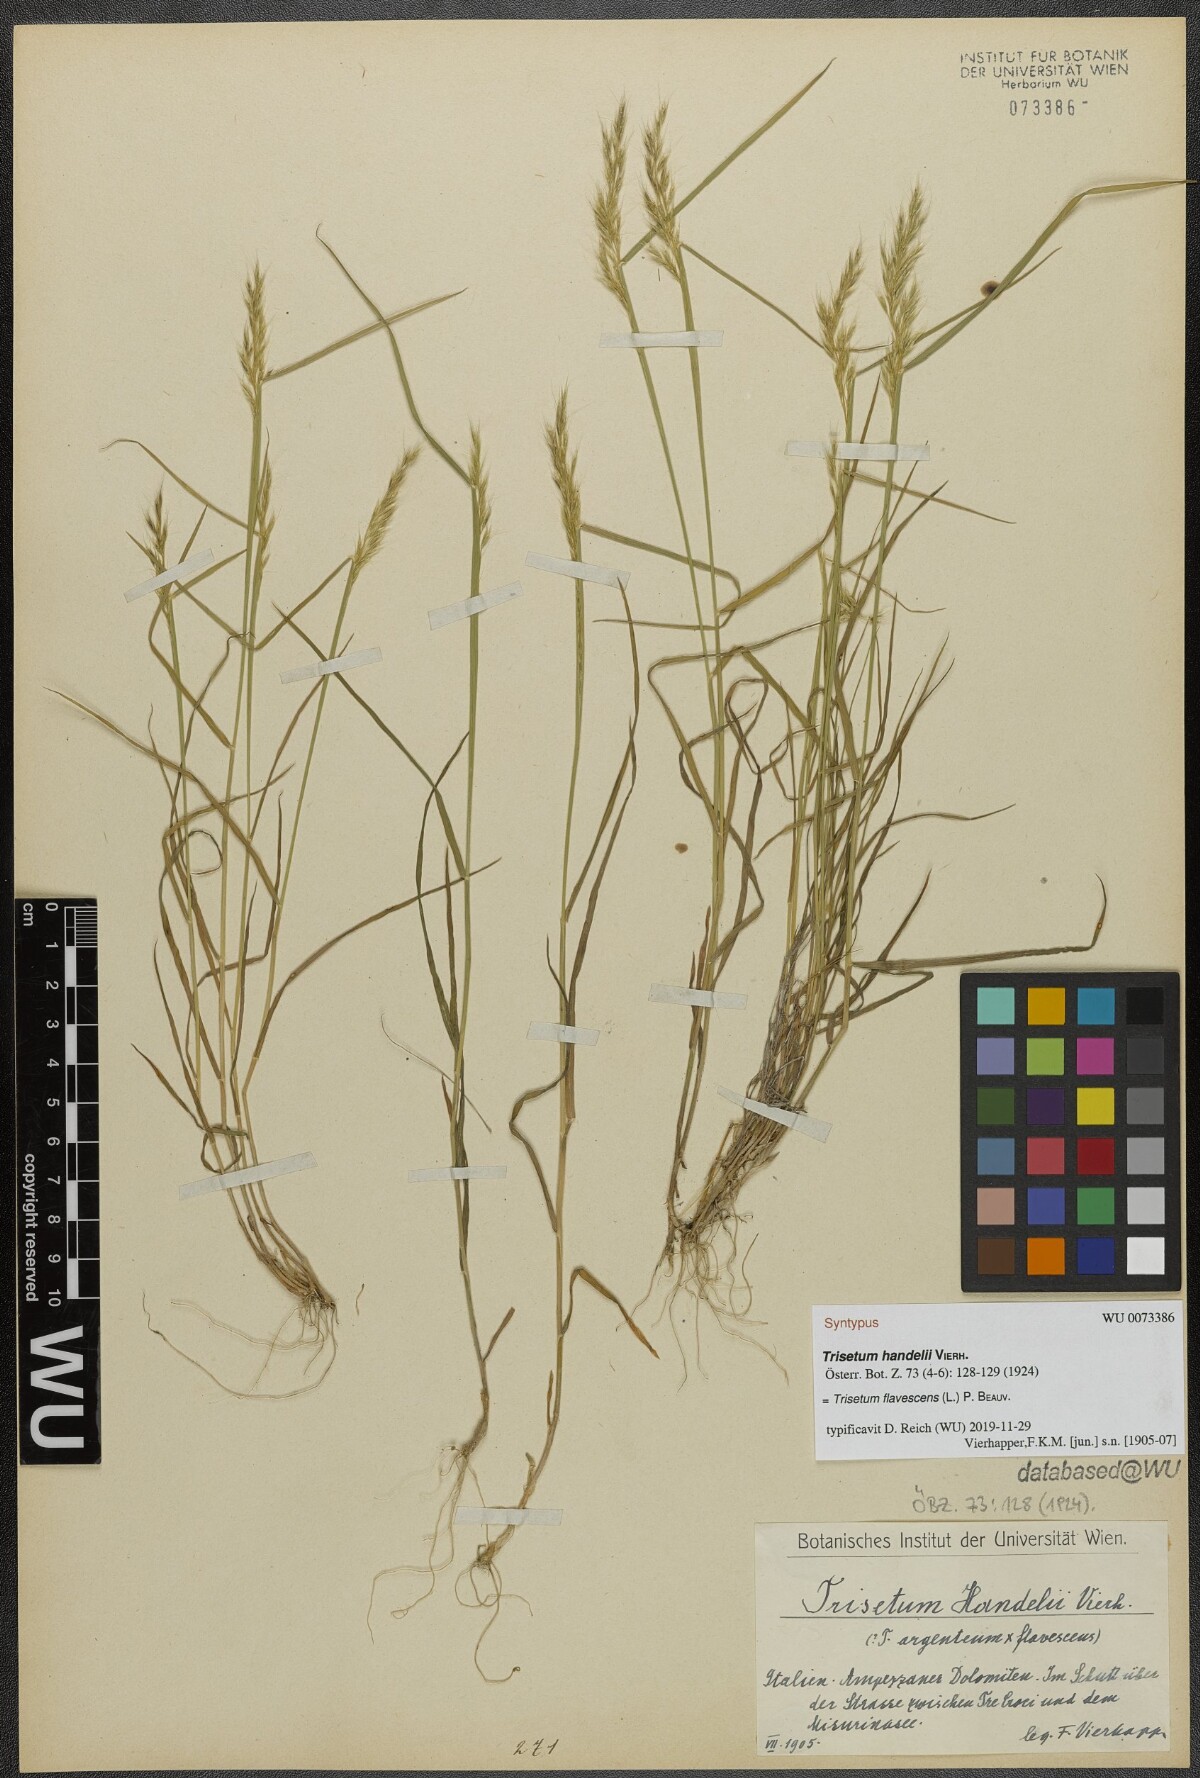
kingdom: Plantae
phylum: Tracheophyta
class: Liliopsida
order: Poales
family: Poaceae
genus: Trisetum
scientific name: Trisetum flavescens
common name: Yellow oat-grass
